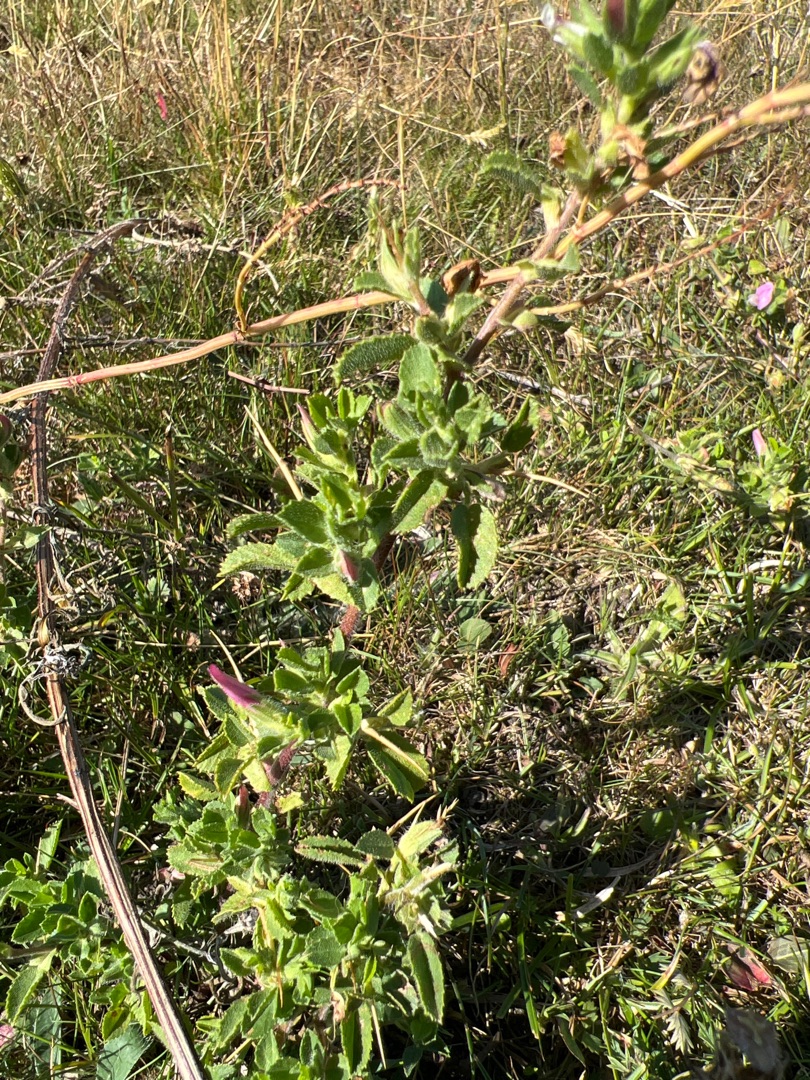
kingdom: Plantae
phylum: Tracheophyta
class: Magnoliopsida
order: Fabales
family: Fabaceae
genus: Ononis
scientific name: Ononis spinosa
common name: Mark-krageklo
